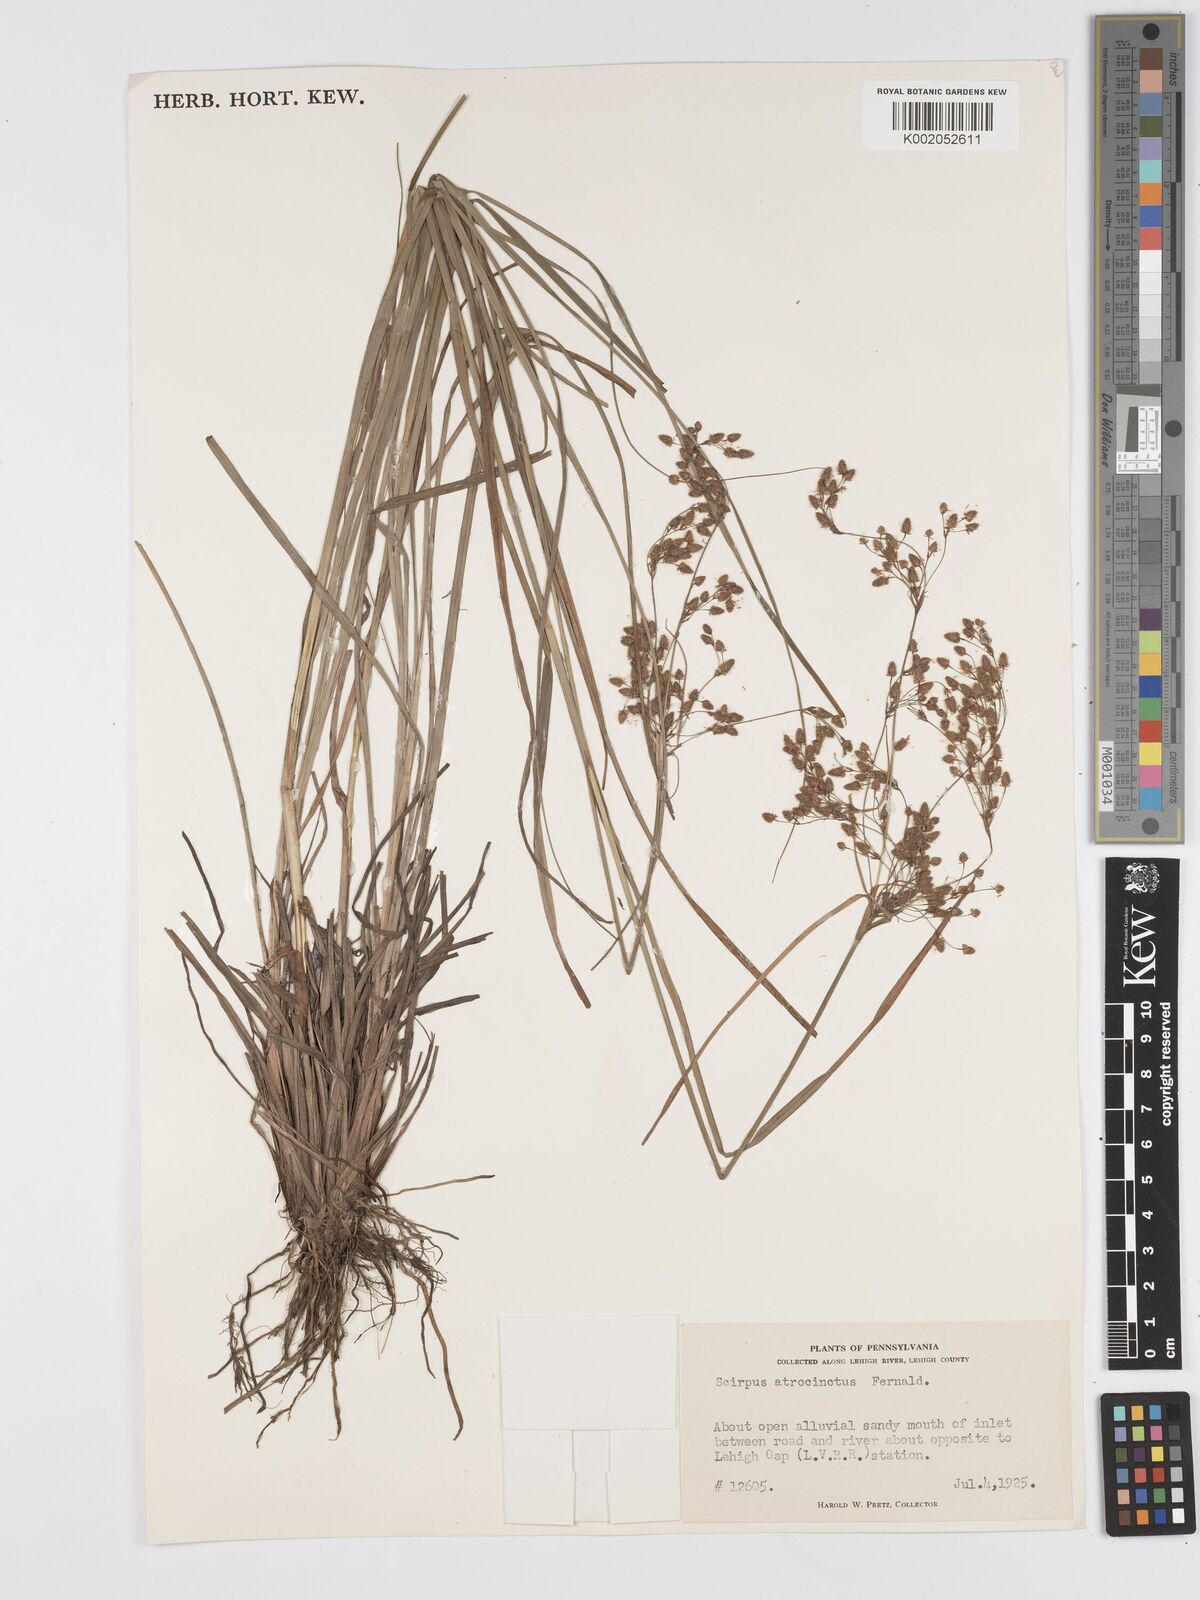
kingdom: Plantae
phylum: Tracheophyta
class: Liliopsida
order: Poales
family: Cyperaceae
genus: Scirpus
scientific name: Scirpus atrocinctus
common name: Black-girdled bulrush
